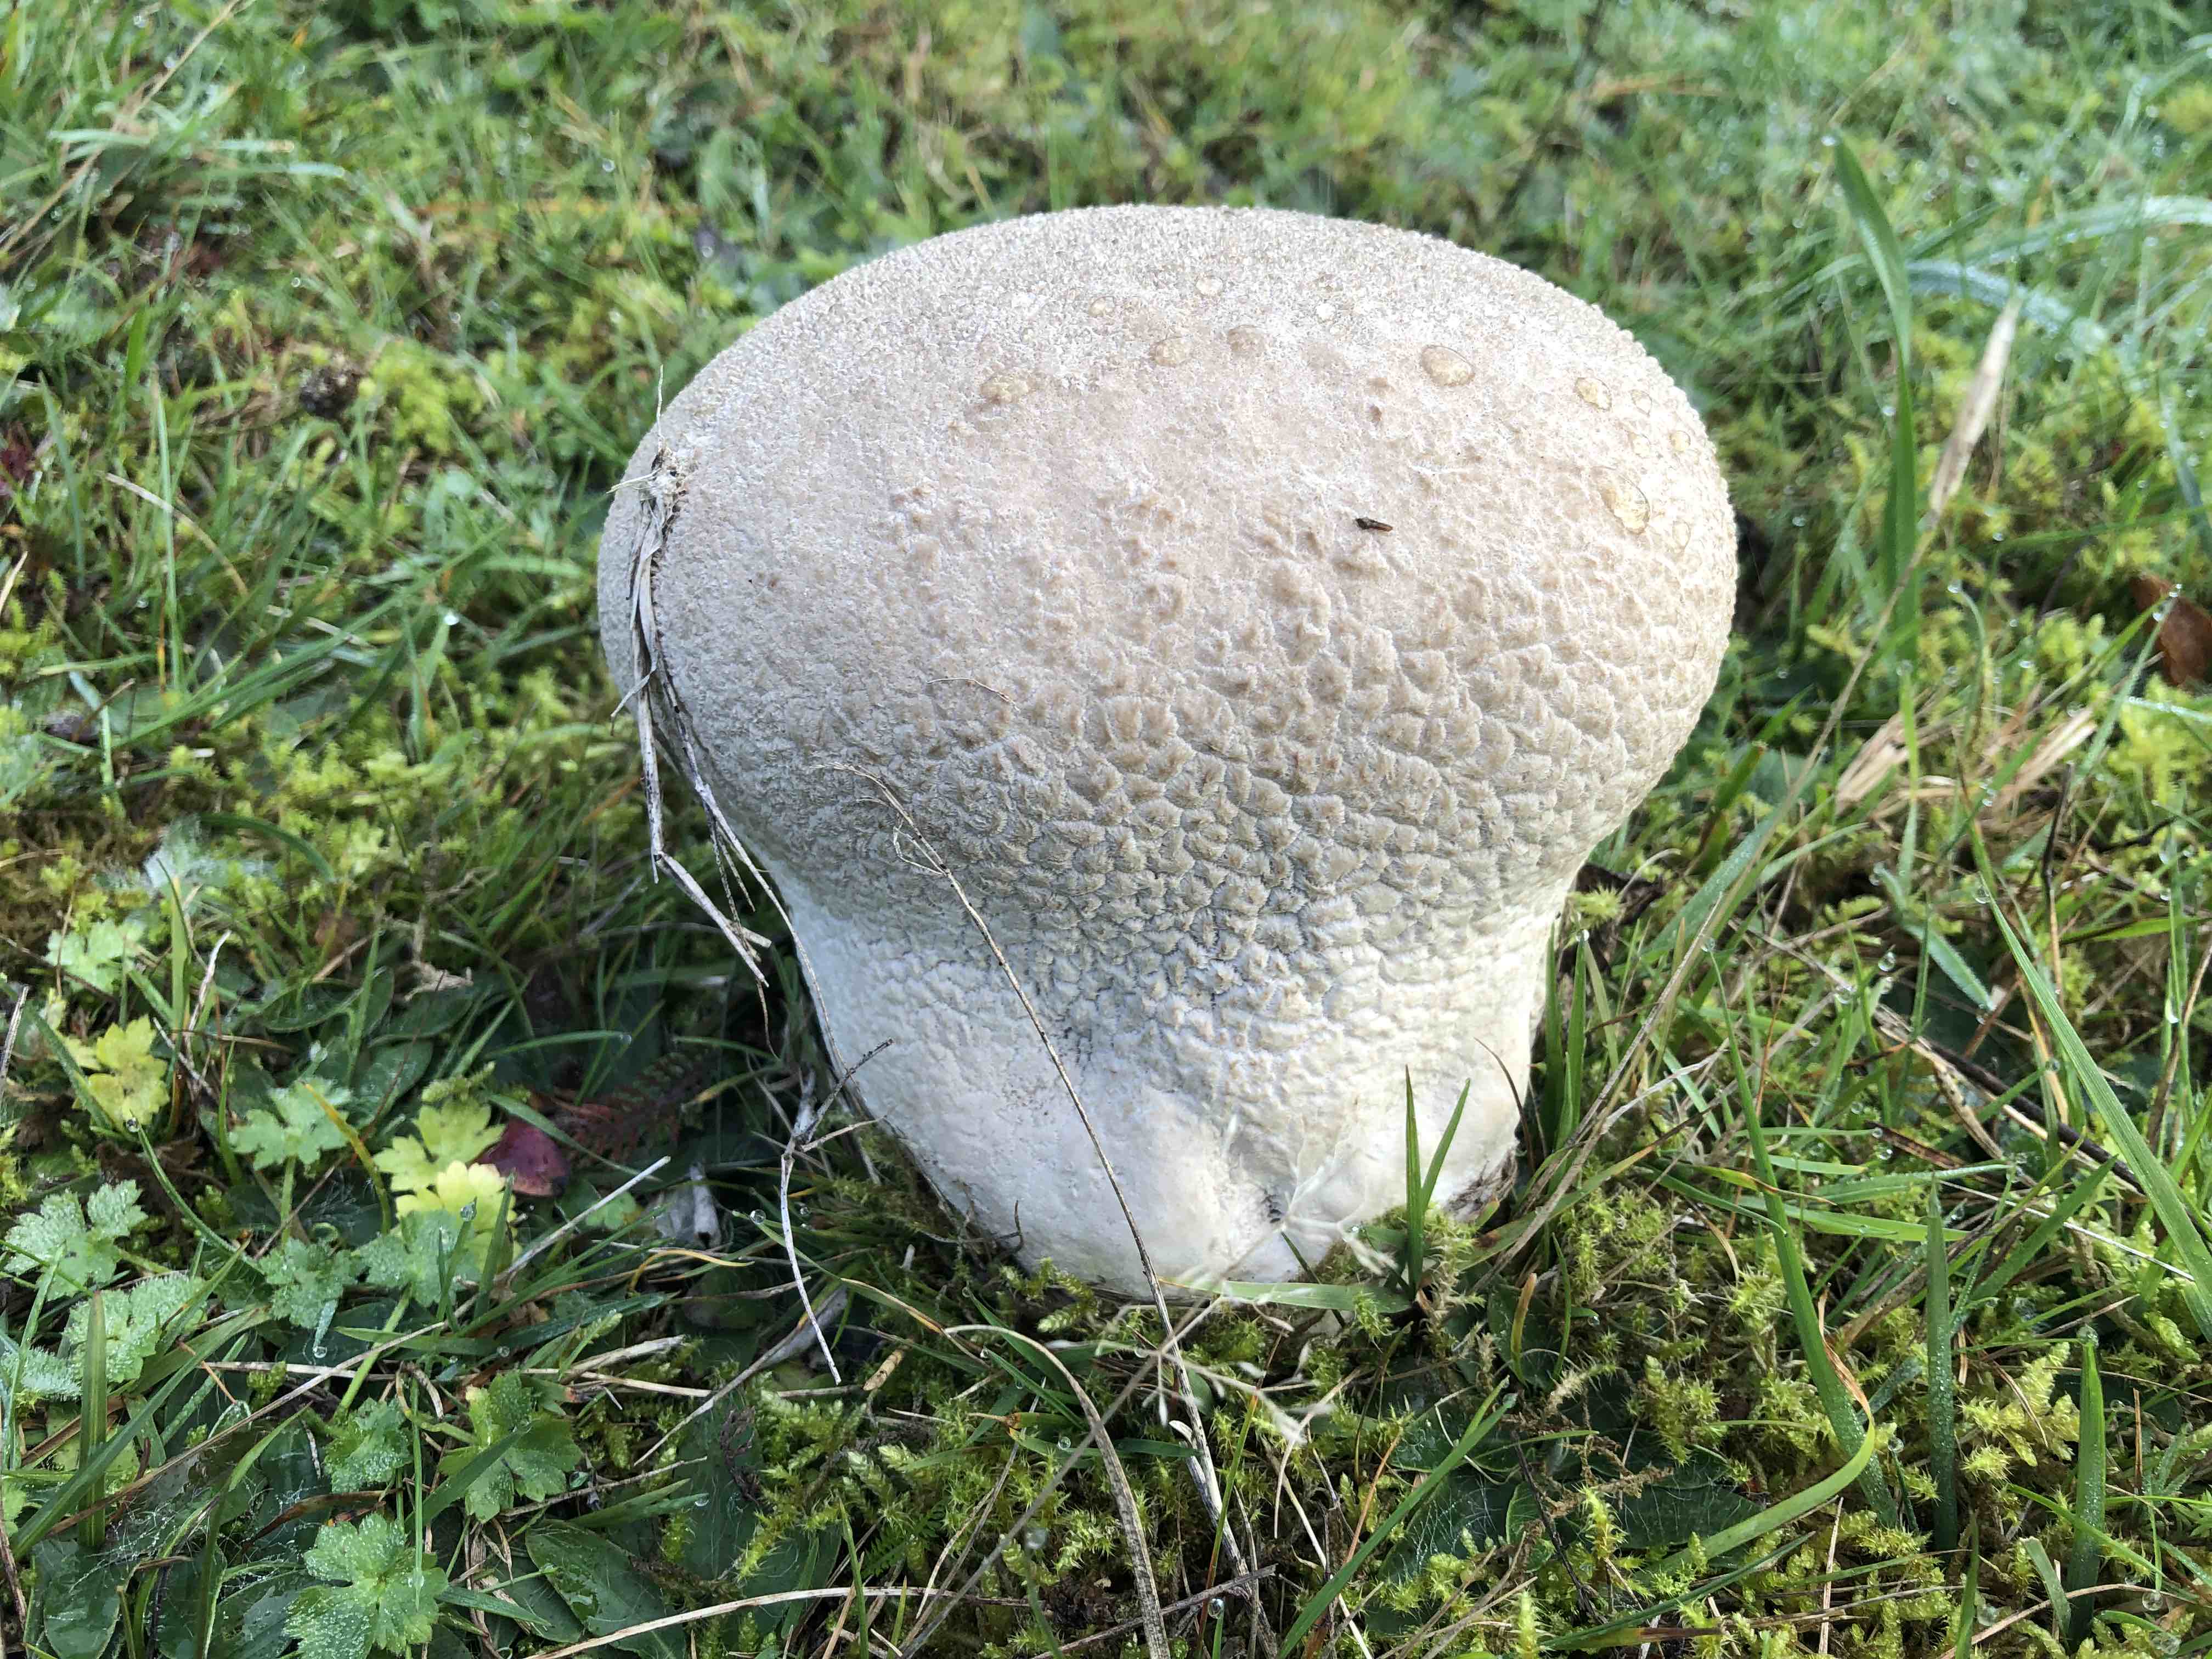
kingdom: Fungi
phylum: Basidiomycota
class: Agaricomycetes
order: Agaricales
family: Lycoperdaceae
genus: Bovistella
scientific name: Bovistella utriformis
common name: skællet støvbold
